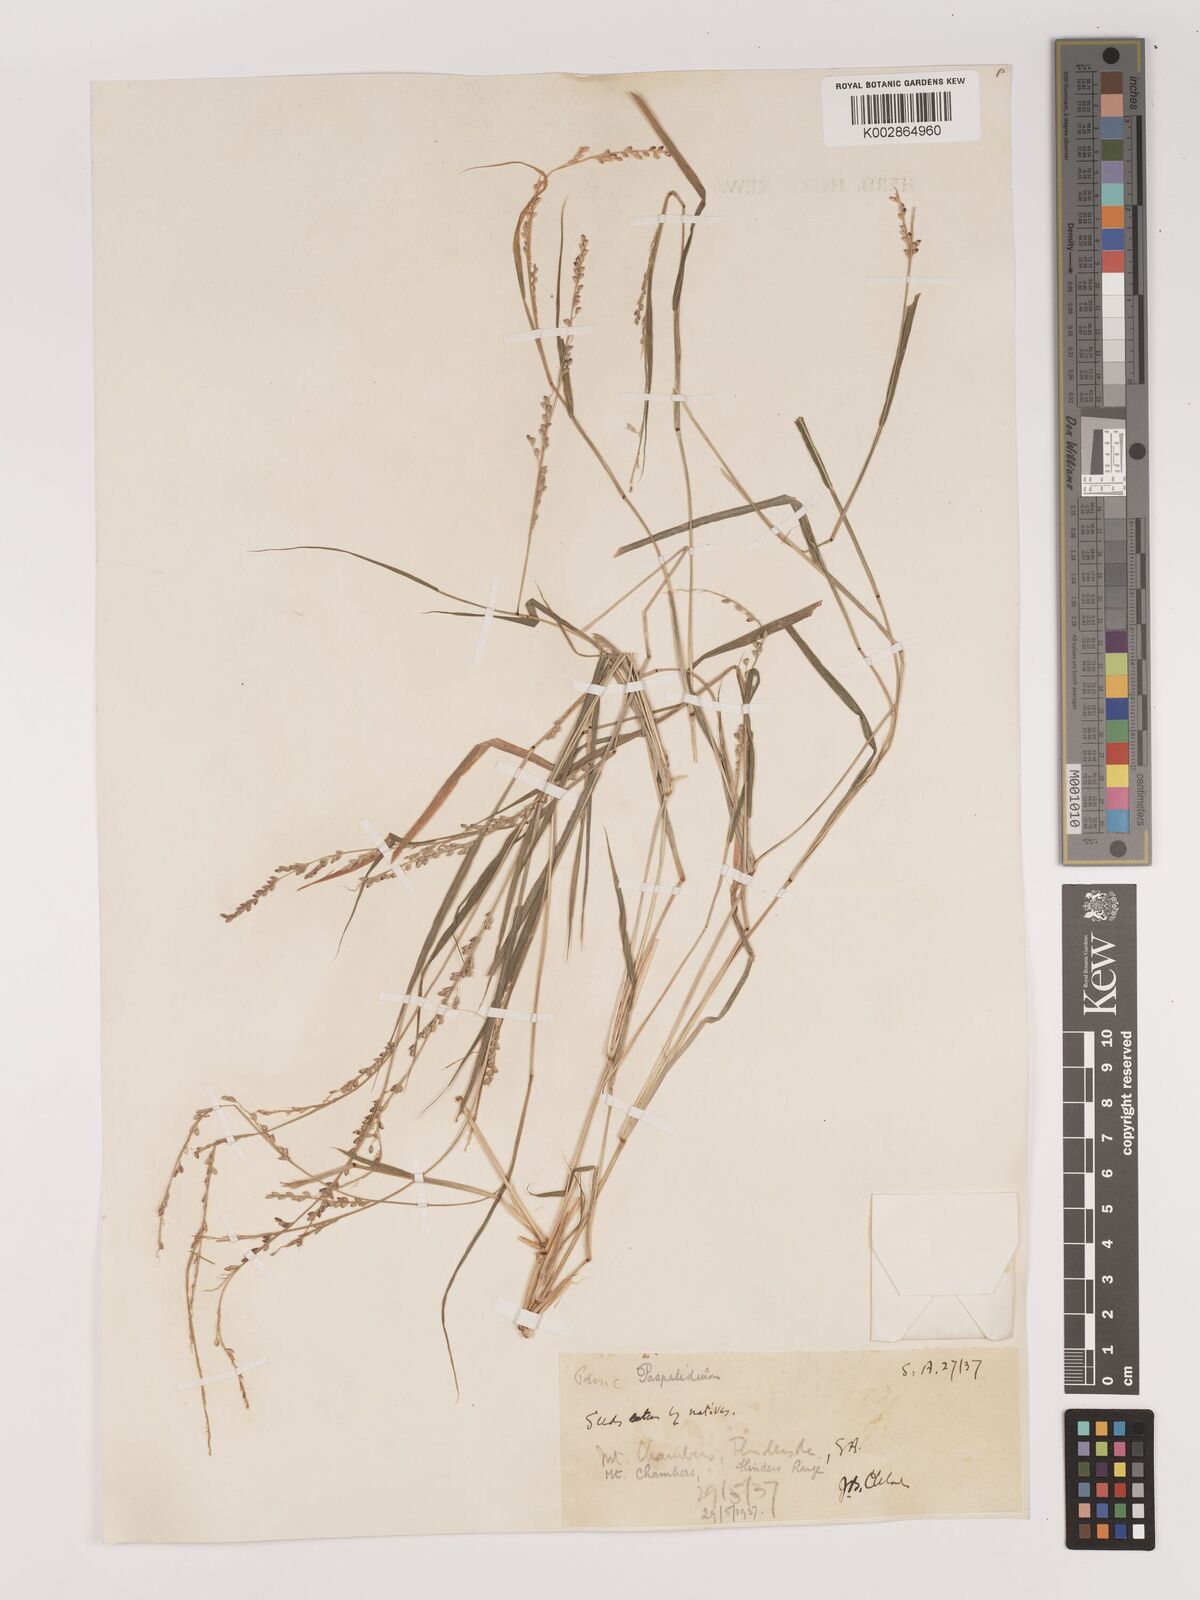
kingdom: Plantae
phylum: Tracheophyta
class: Liliopsida
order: Poales
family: Poaceae
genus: Setaria
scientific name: Setaria
